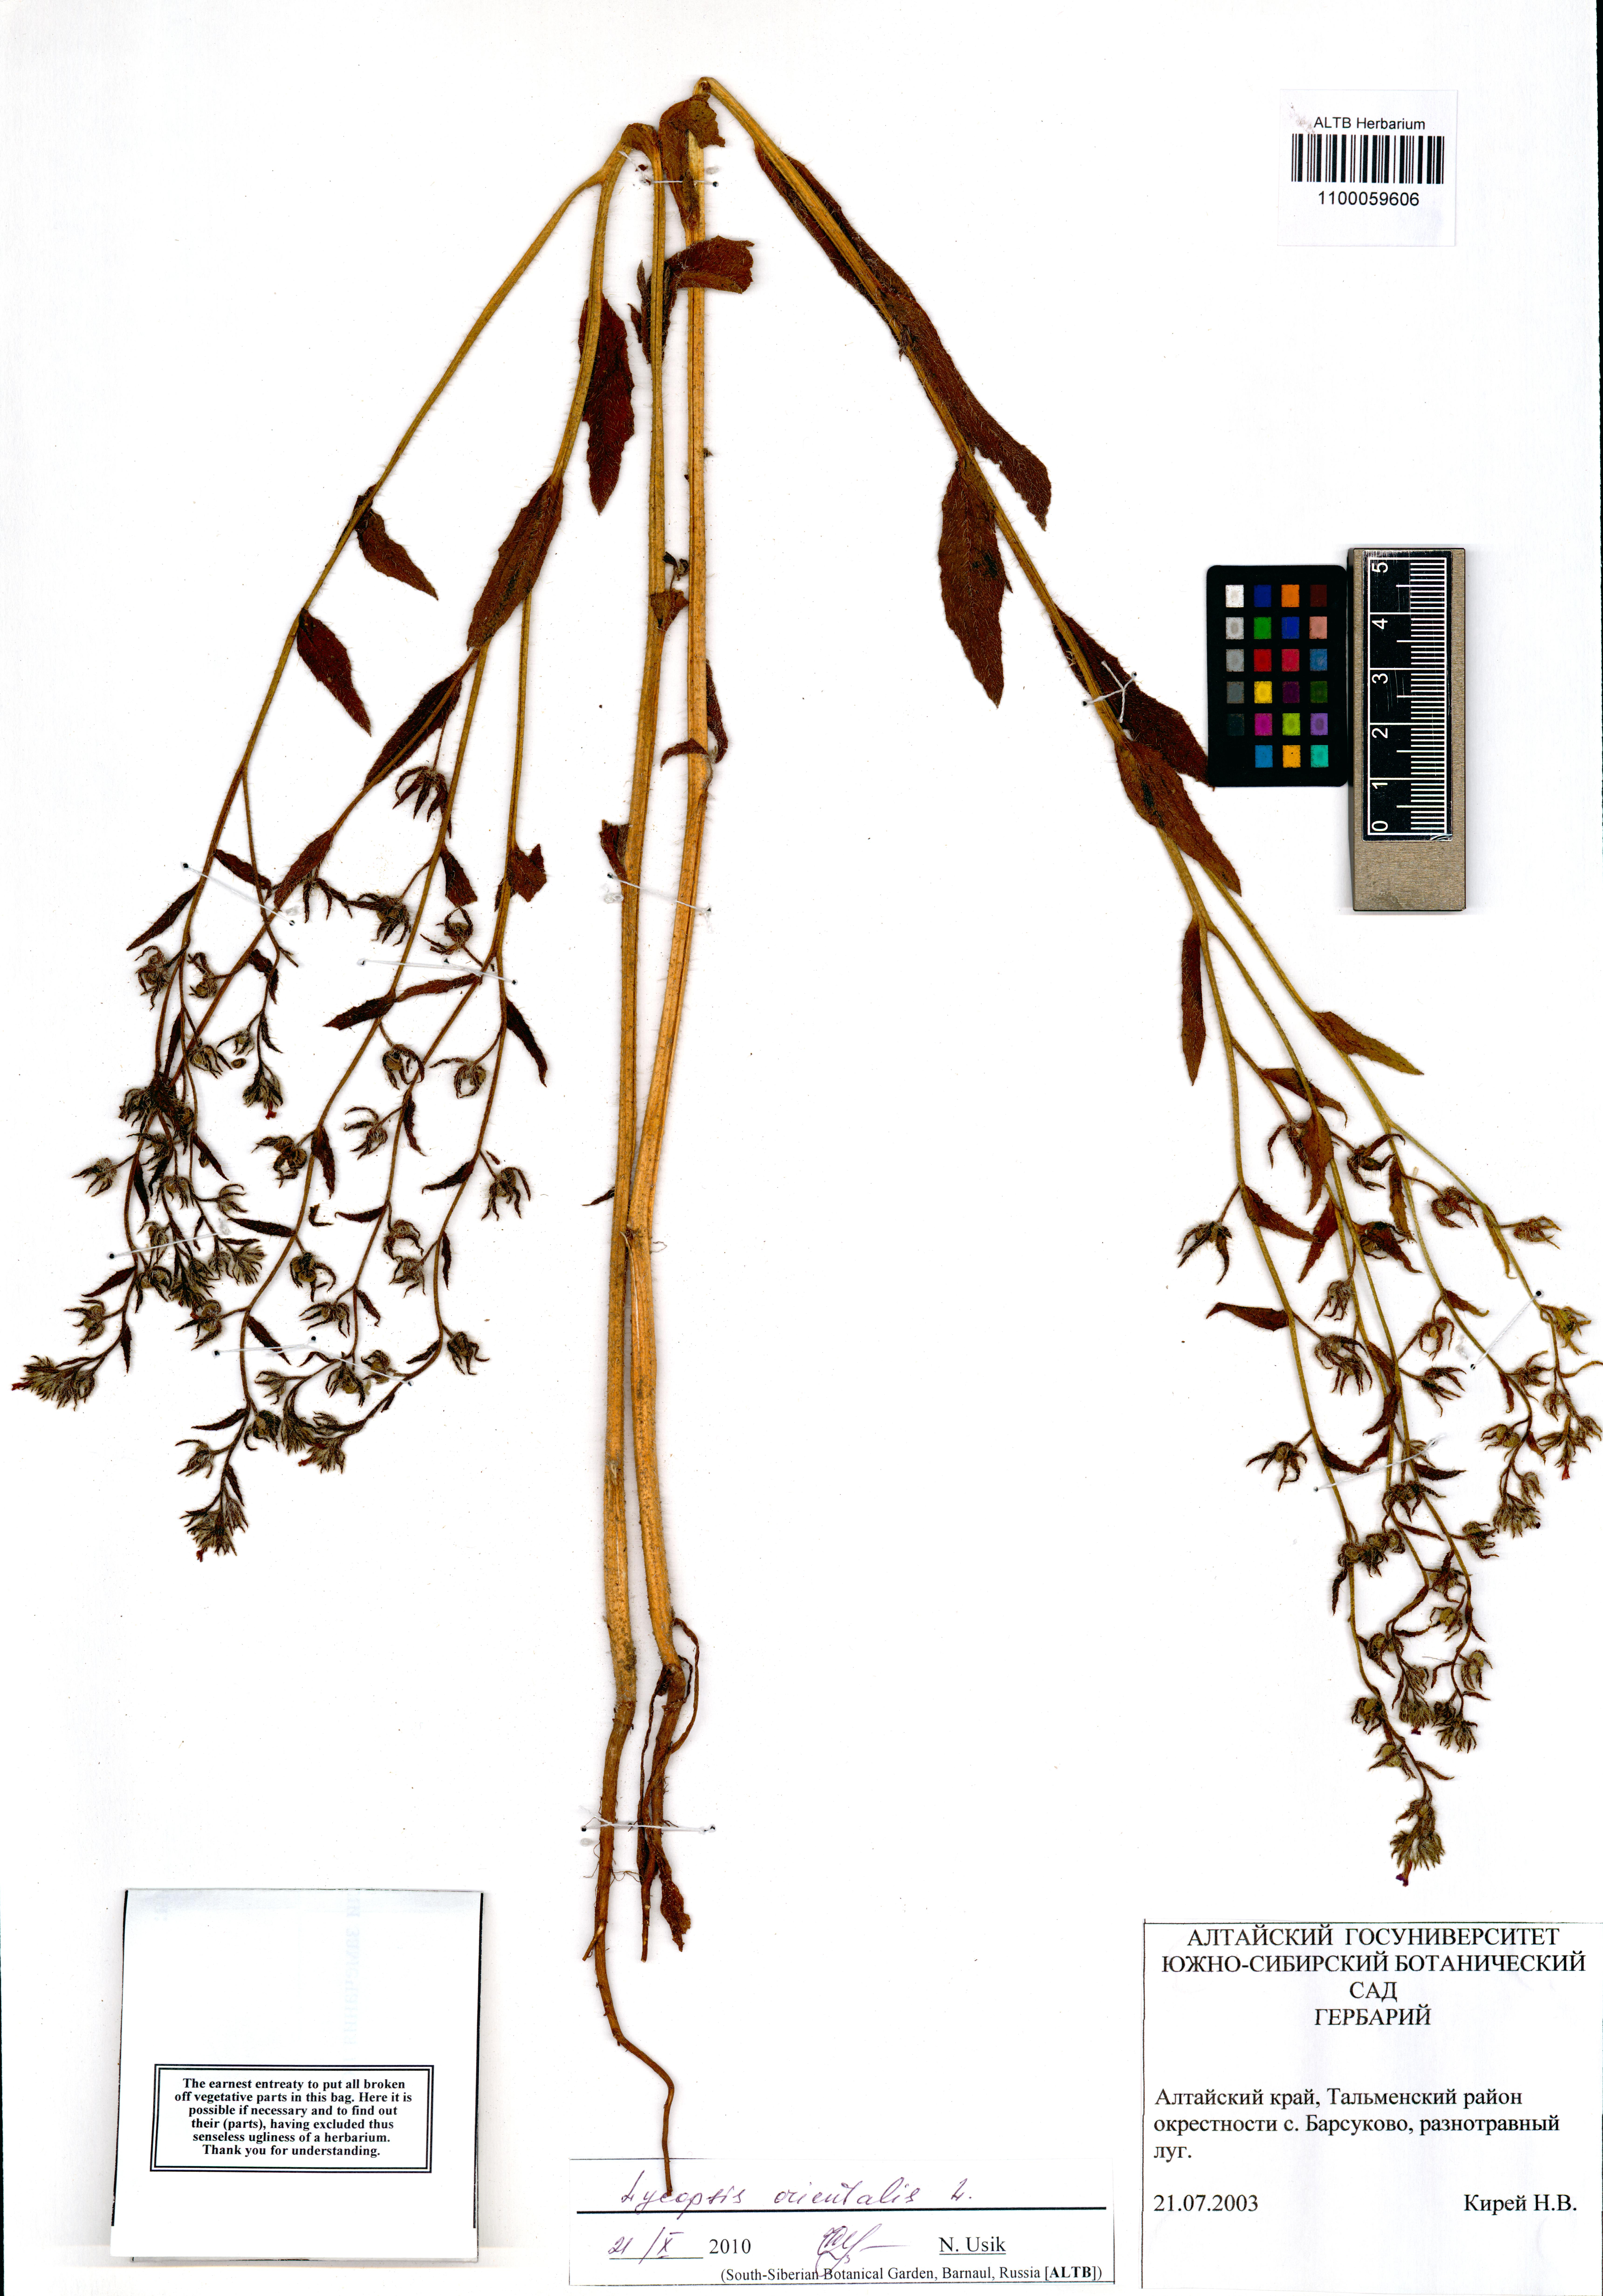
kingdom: Plantae
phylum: Tracheophyta
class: Magnoliopsida
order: Boraginales
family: Boraginaceae
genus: Lycopsis
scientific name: Lycopsis arvensis
